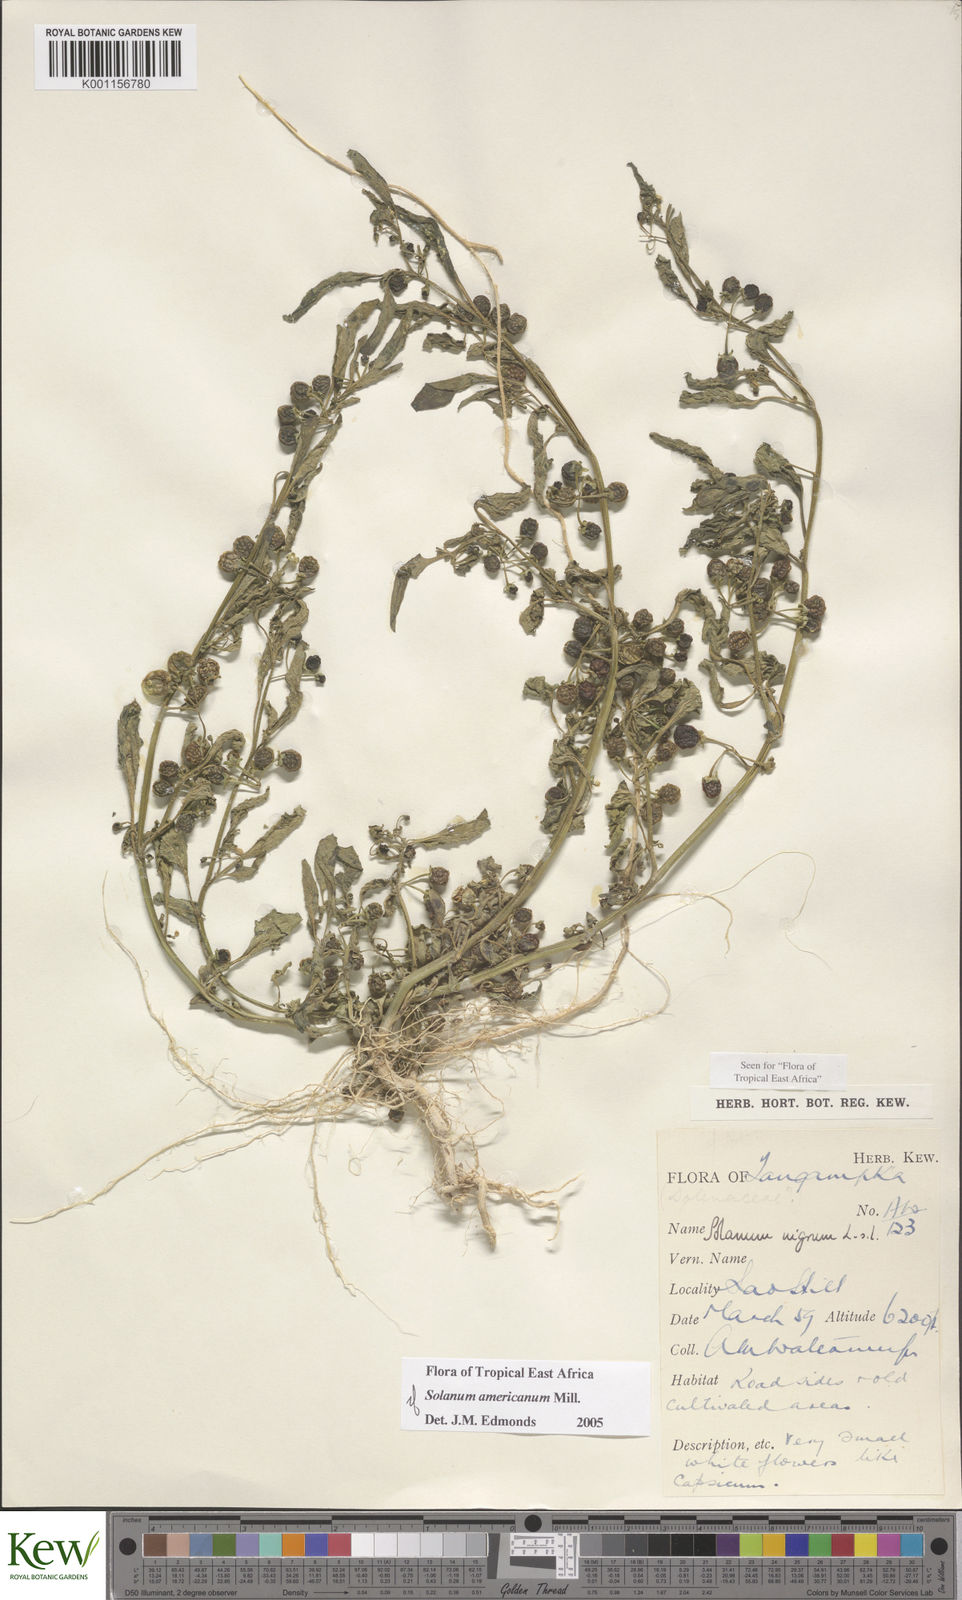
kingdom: Plantae
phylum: Tracheophyta
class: Magnoliopsida
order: Solanales
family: Solanaceae
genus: Solanum
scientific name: Solanum americanum
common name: American black nightshade
